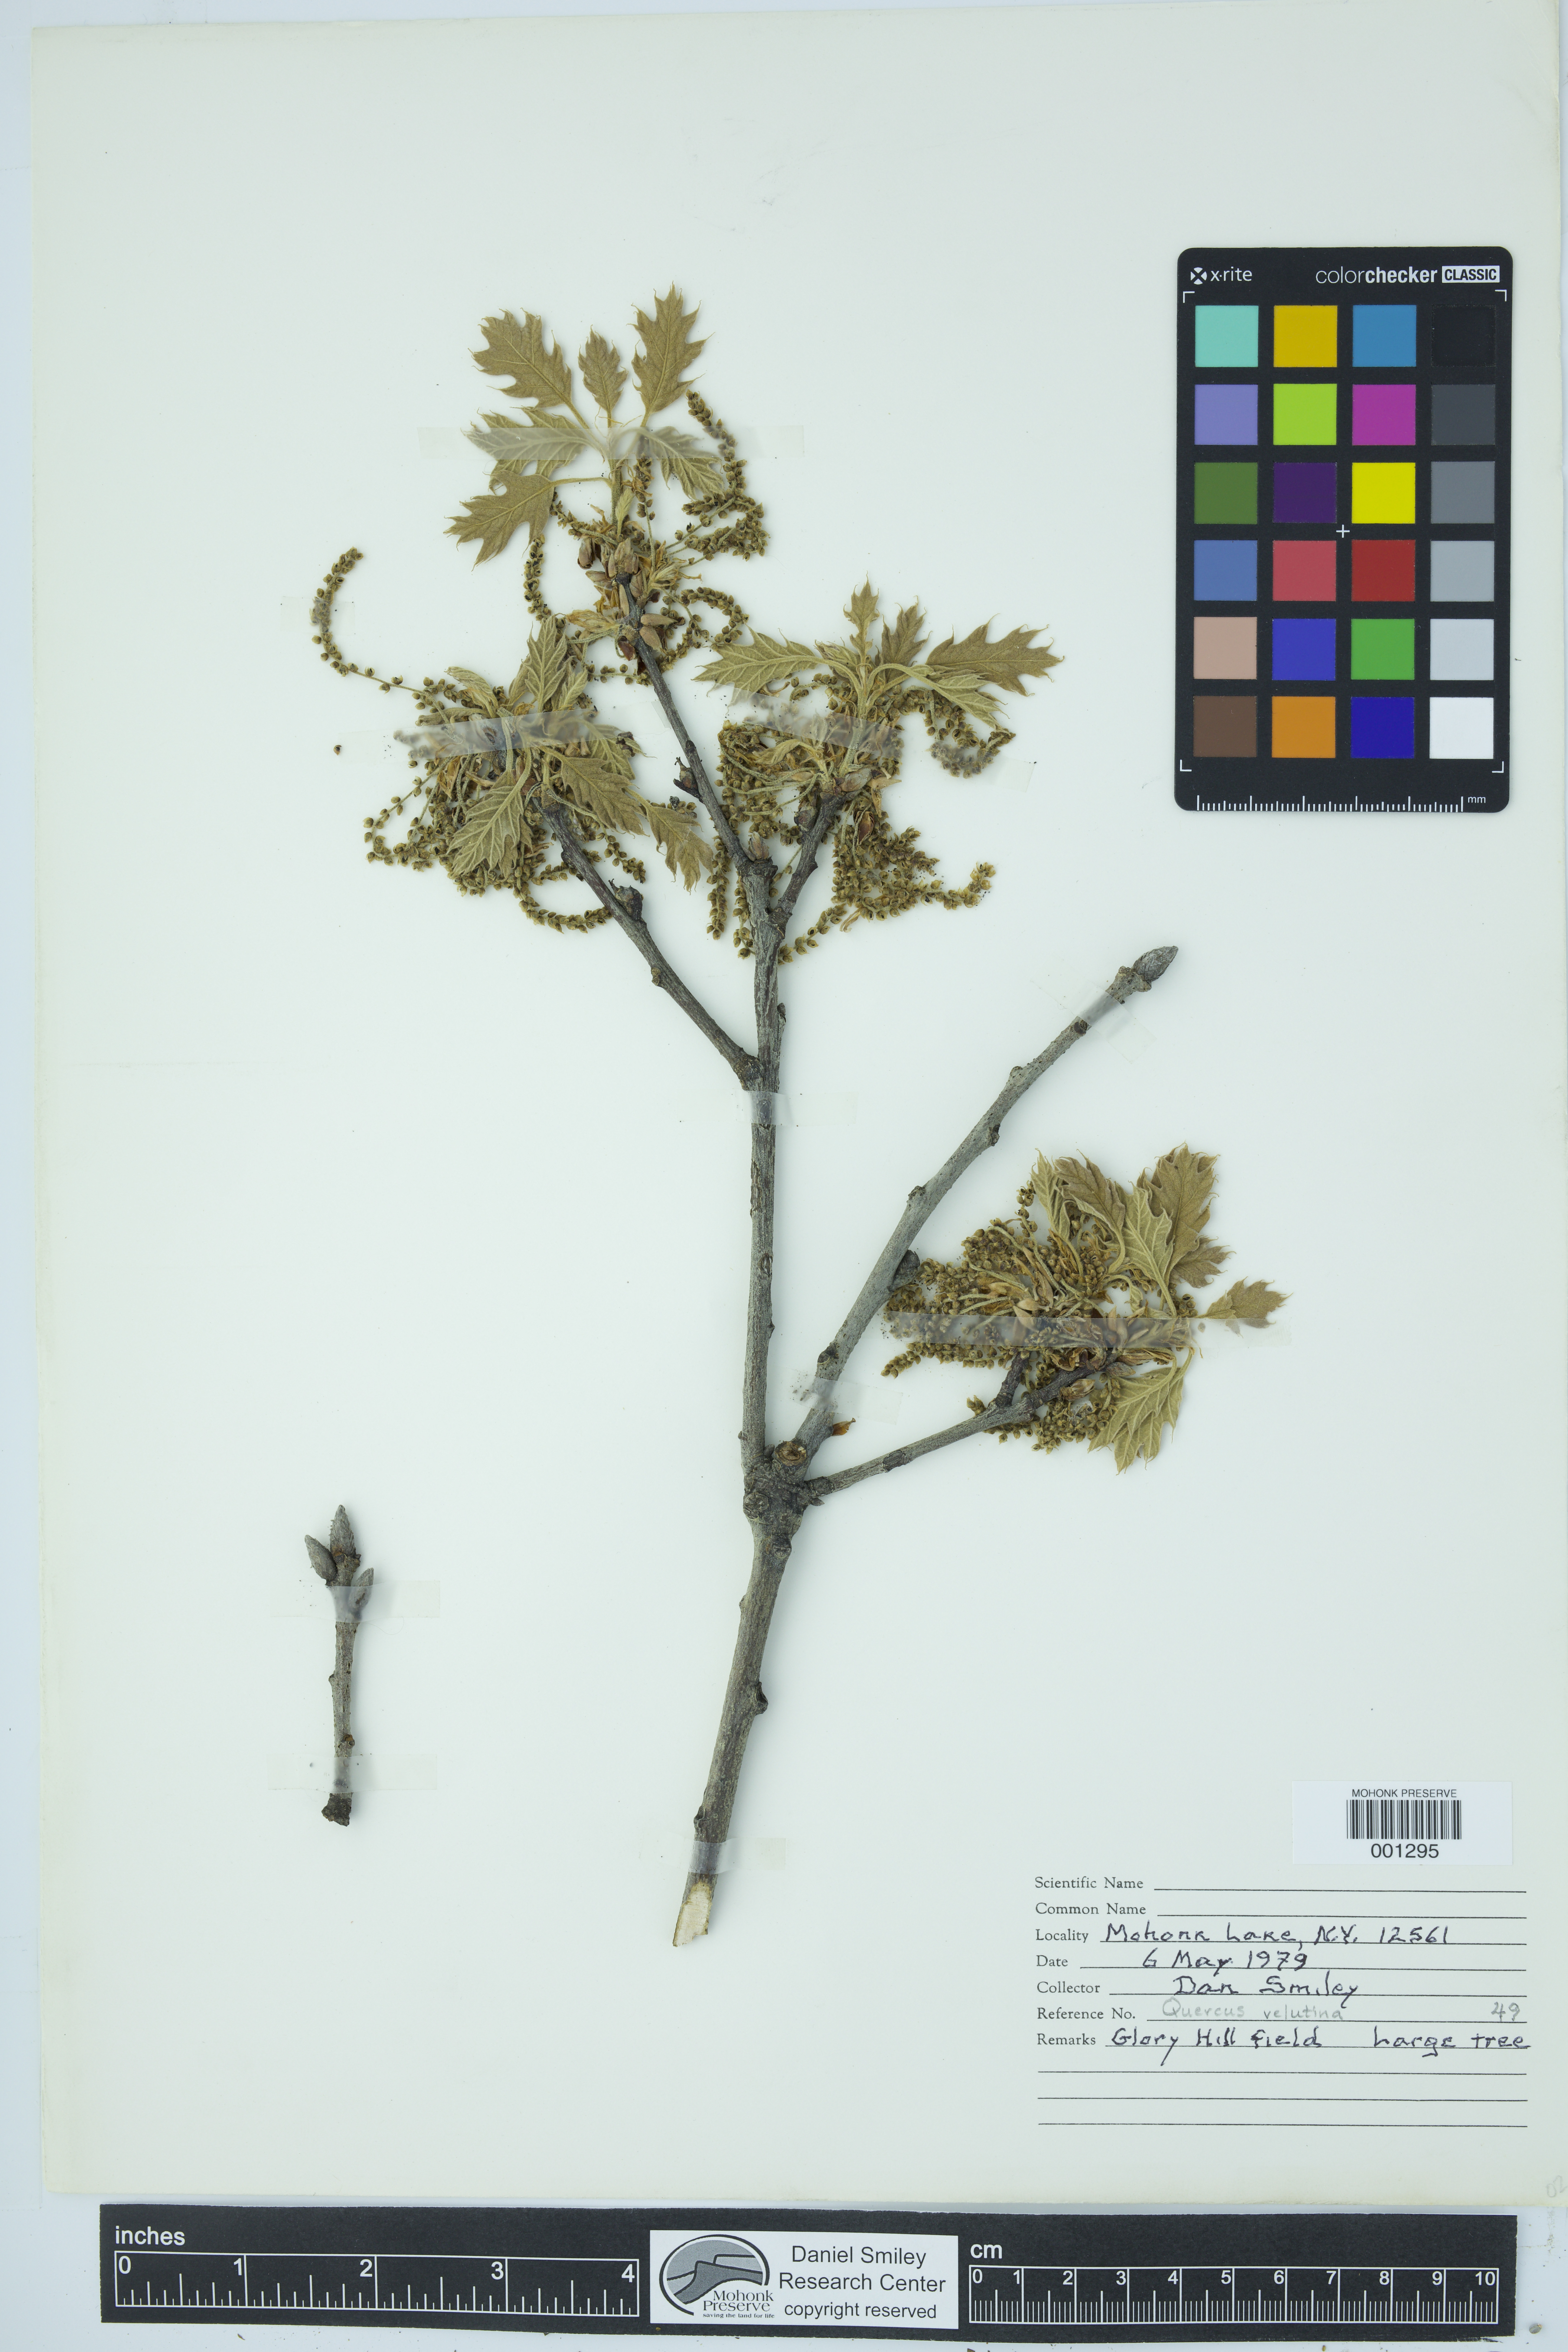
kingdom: Plantae
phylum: Tracheophyta
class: Magnoliopsida
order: Fagales
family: Fagaceae
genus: Quercus
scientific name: Quercus velutina
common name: Black oak
